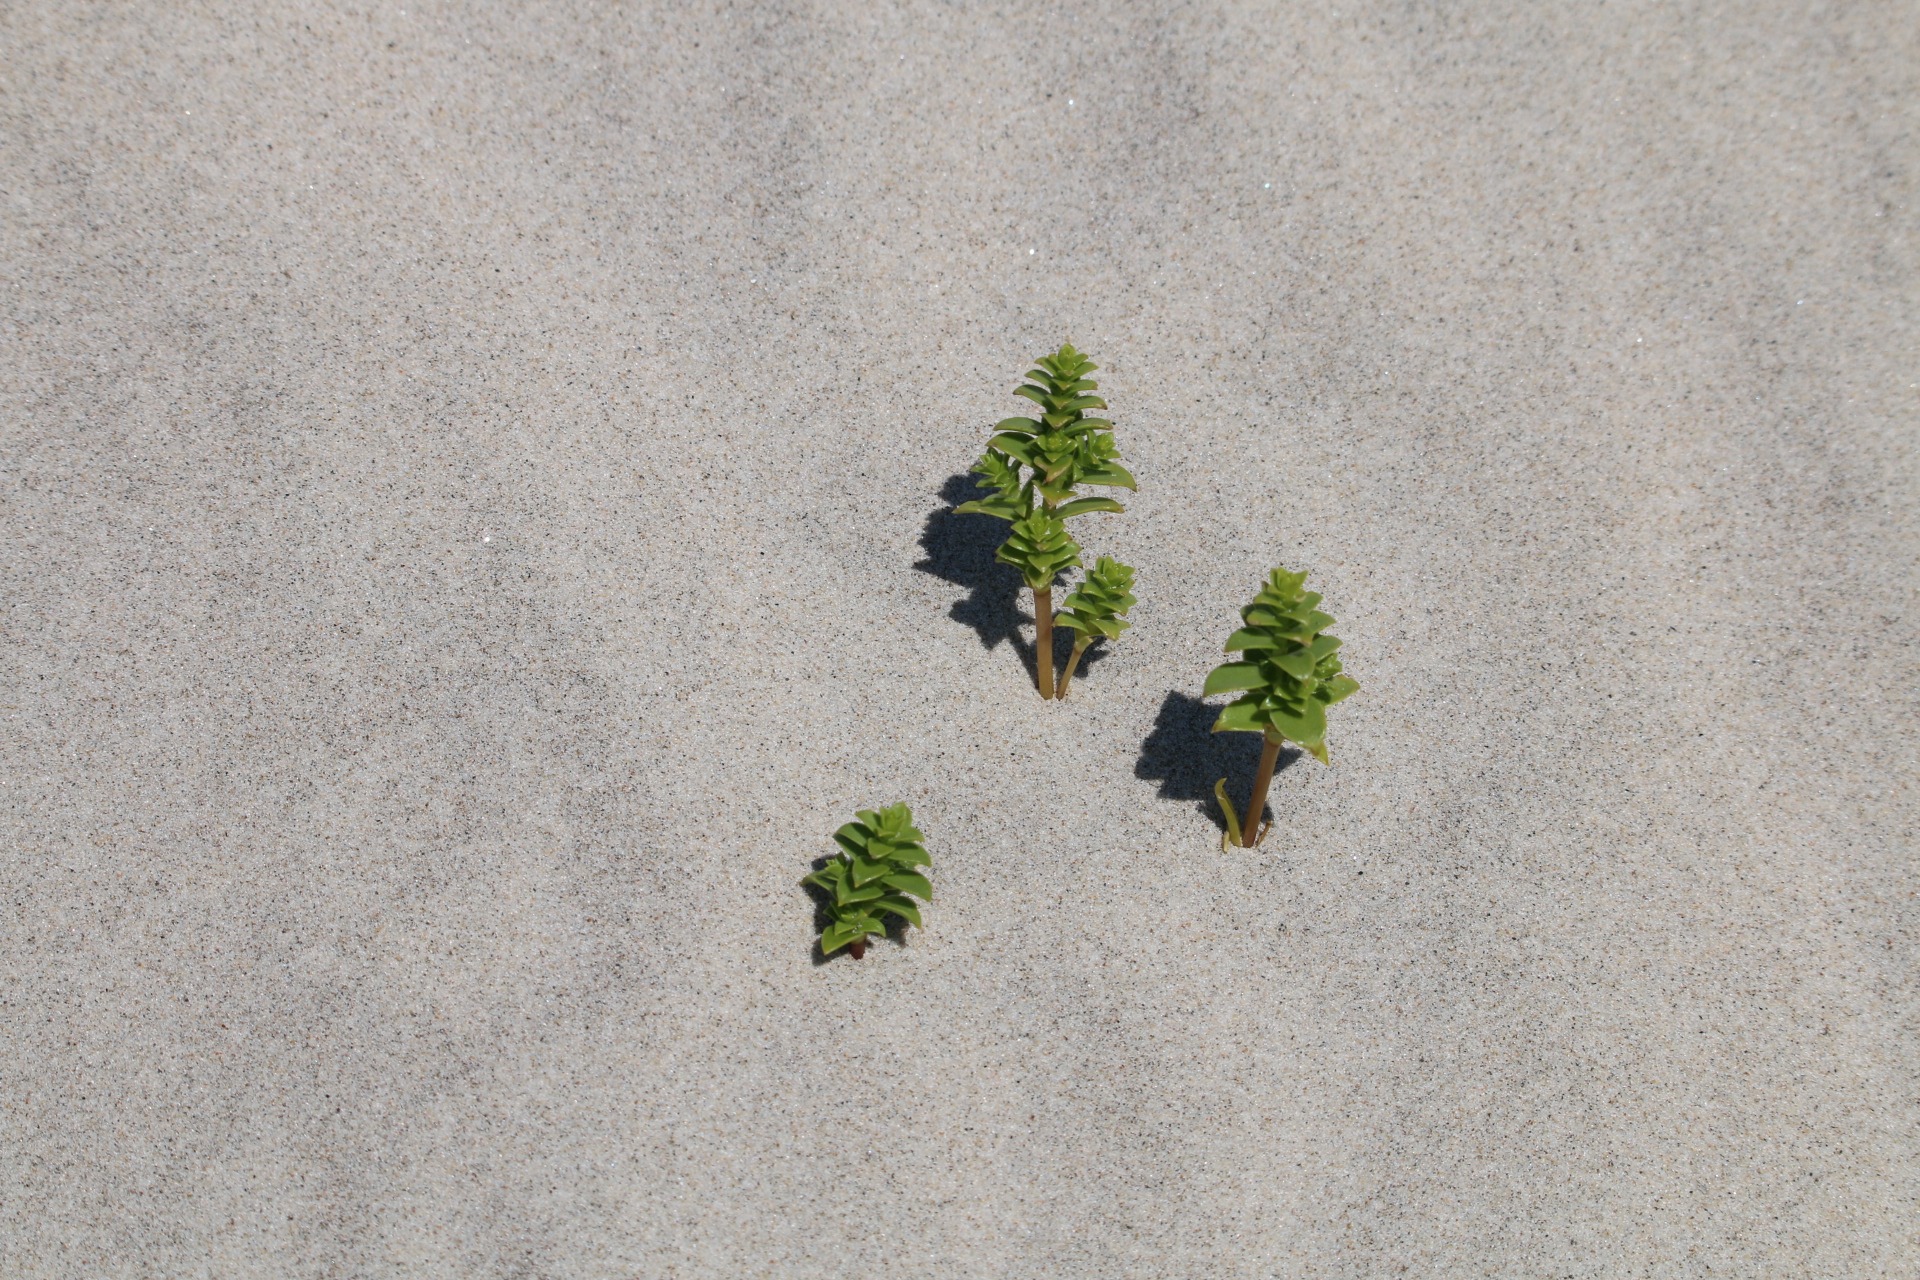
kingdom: Plantae
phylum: Tracheophyta
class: Magnoliopsida
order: Caryophyllales
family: Caryophyllaceae
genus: Honckenya
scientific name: Honckenya peploides
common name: Strandarve
